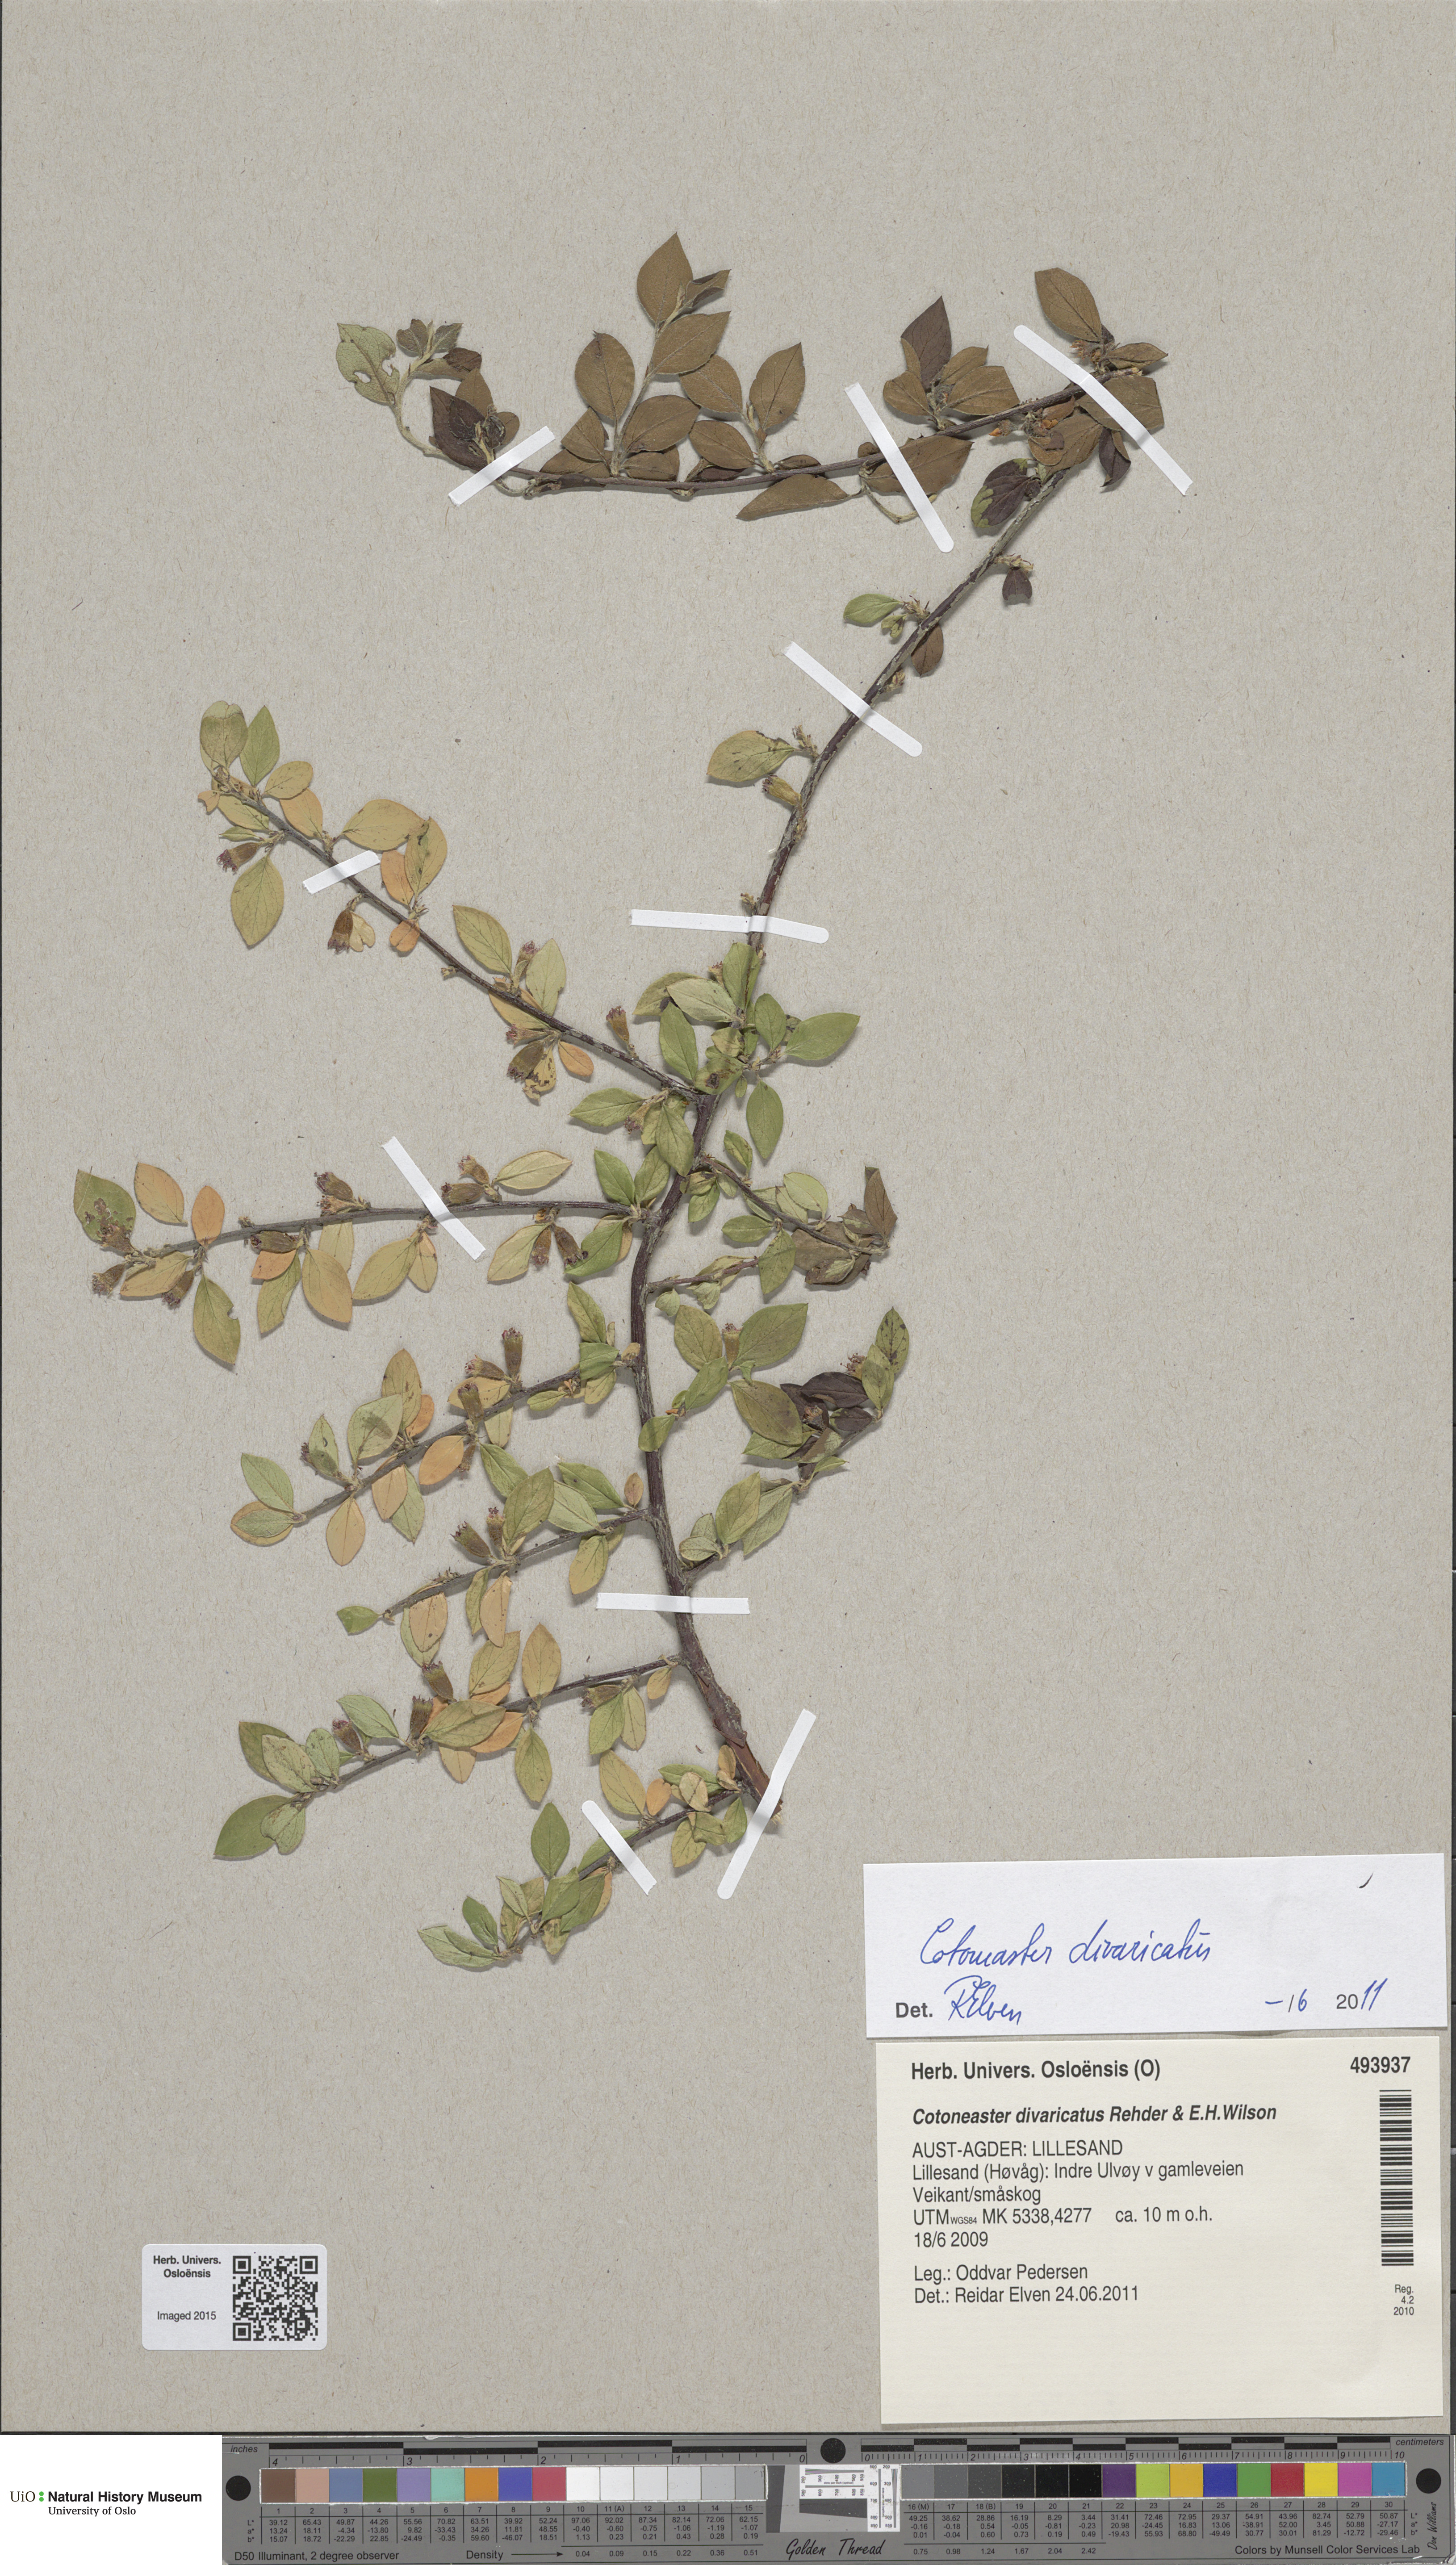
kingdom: Plantae
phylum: Tracheophyta
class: Magnoliopsida
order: Rosales
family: Rosaceae
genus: Cotoneaster
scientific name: Cotoneaster divaricatus
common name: Spreading cotoneaster
